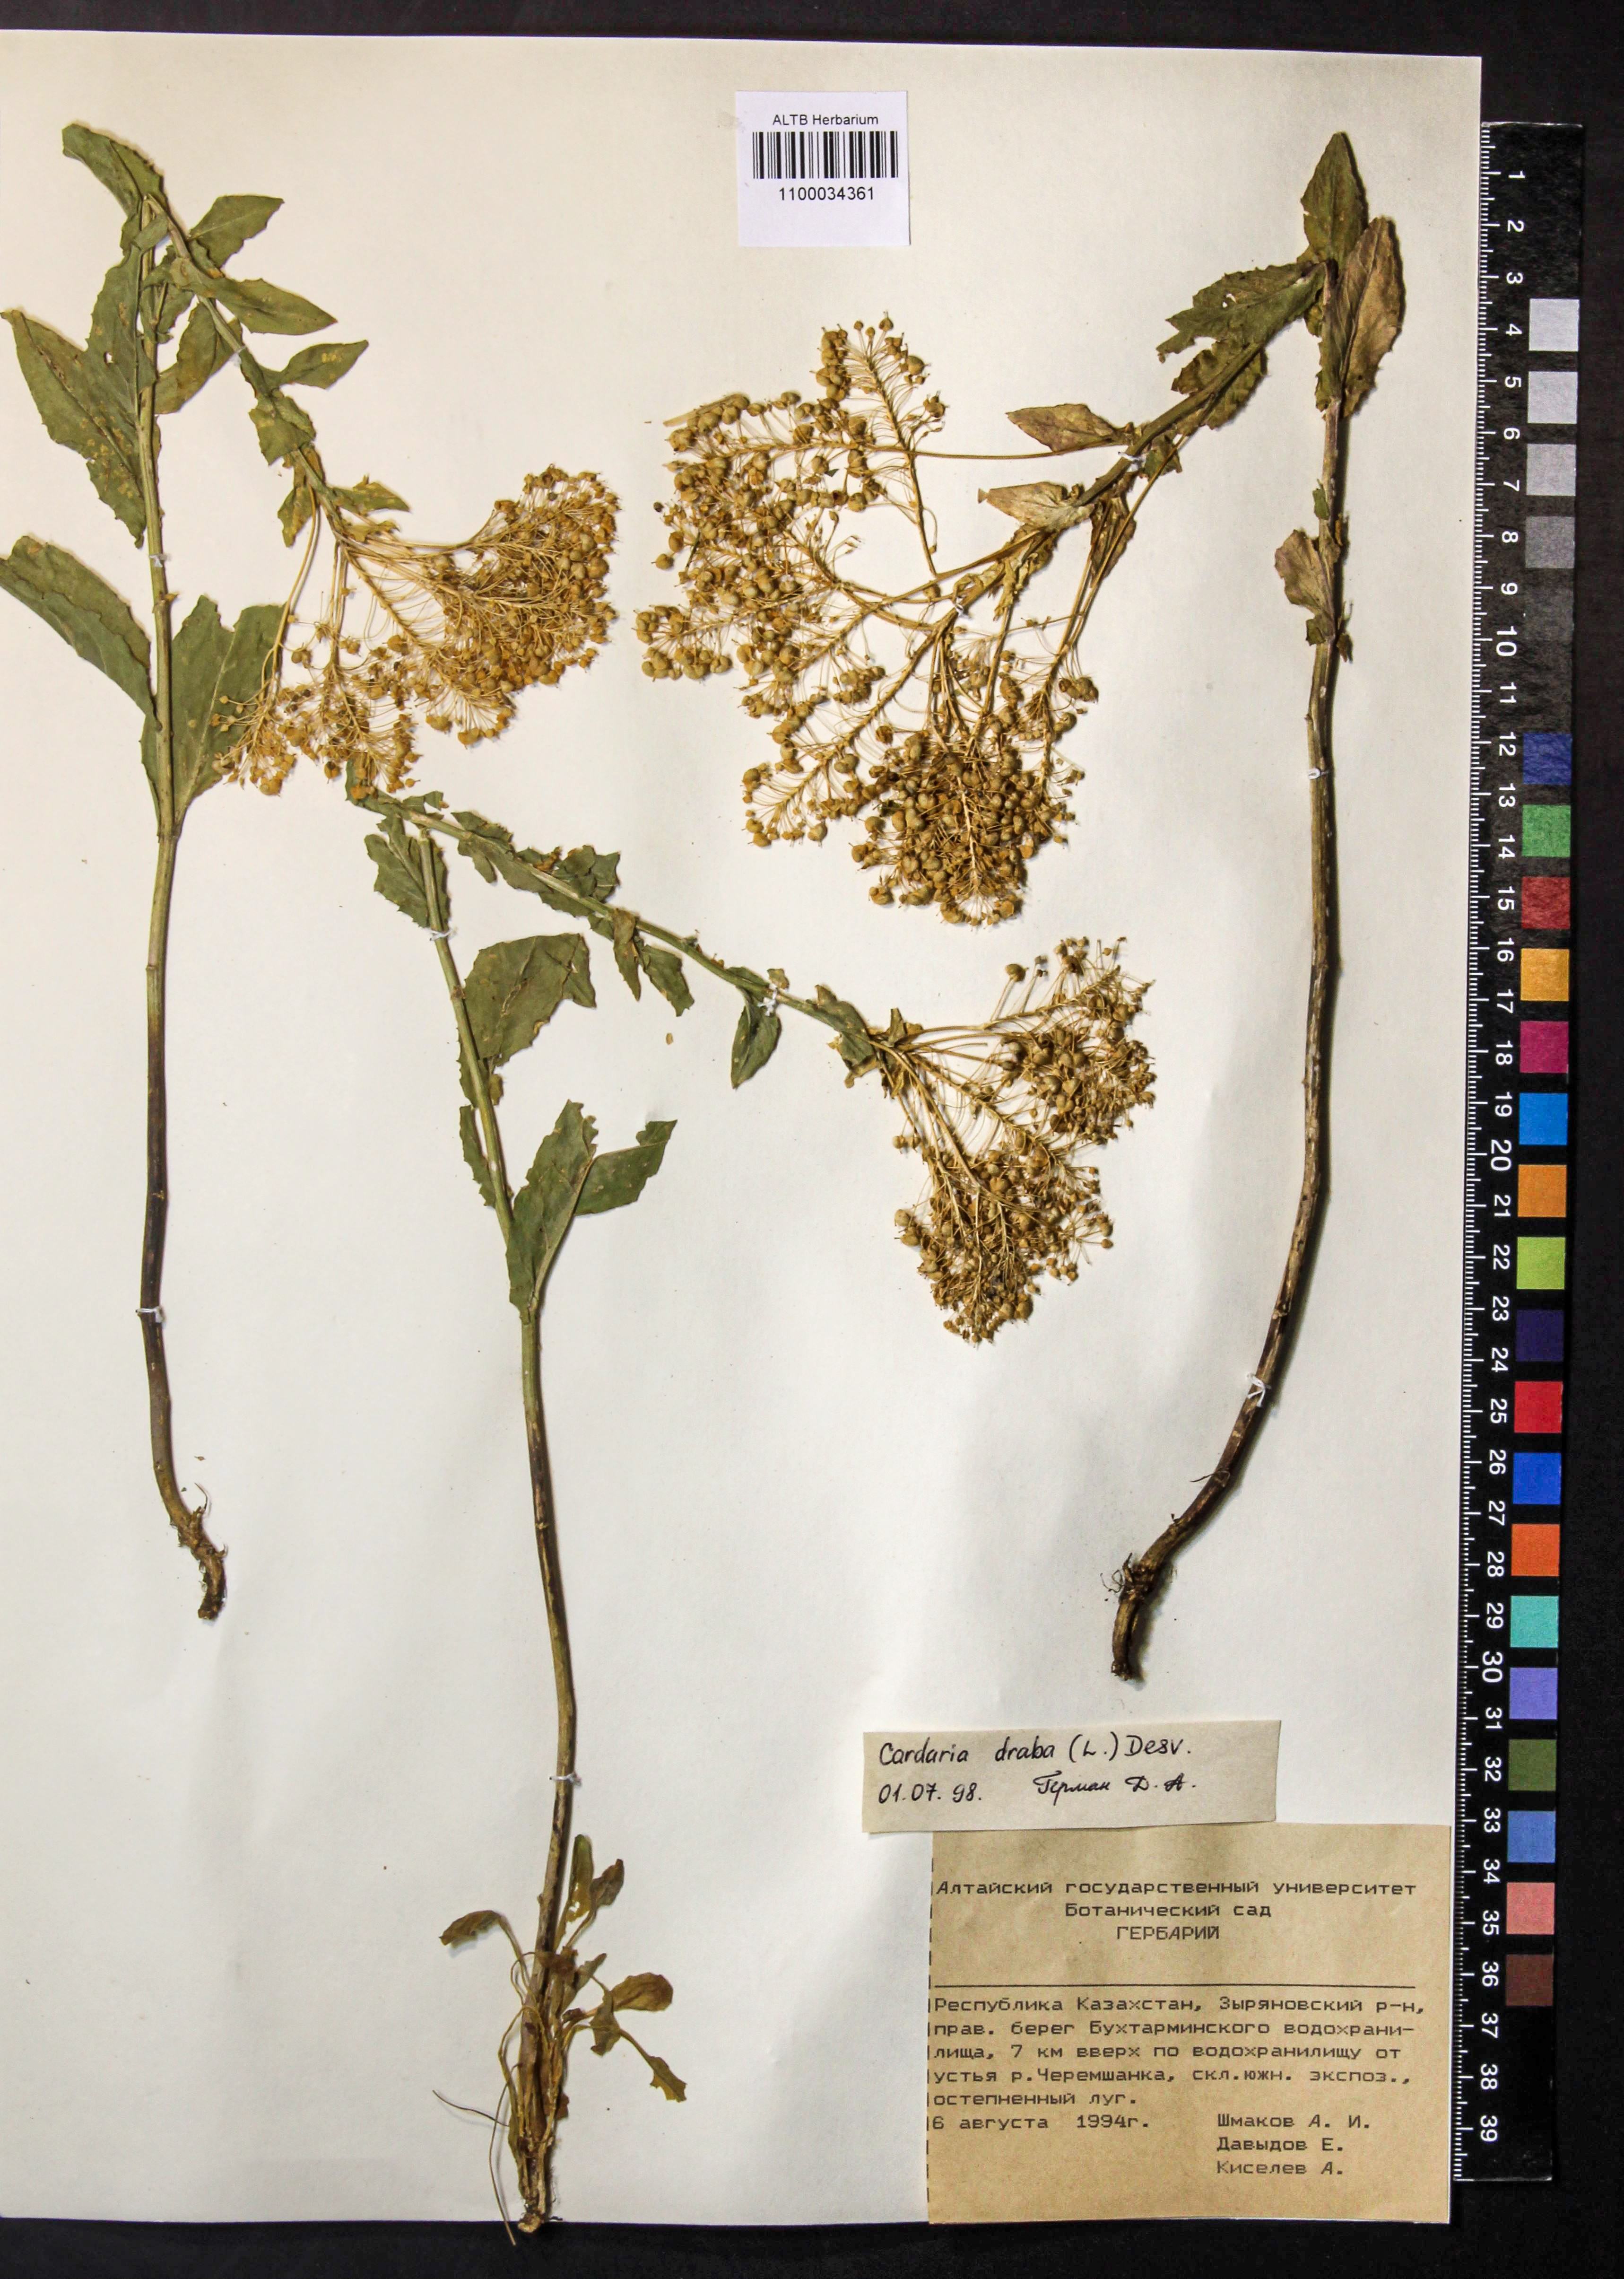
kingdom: Plantae
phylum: Tracheophyta
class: Magnoliopsida
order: Brassicales
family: Brassicaceae
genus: Lepidium
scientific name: Lepidium draba
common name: Hoary cress
